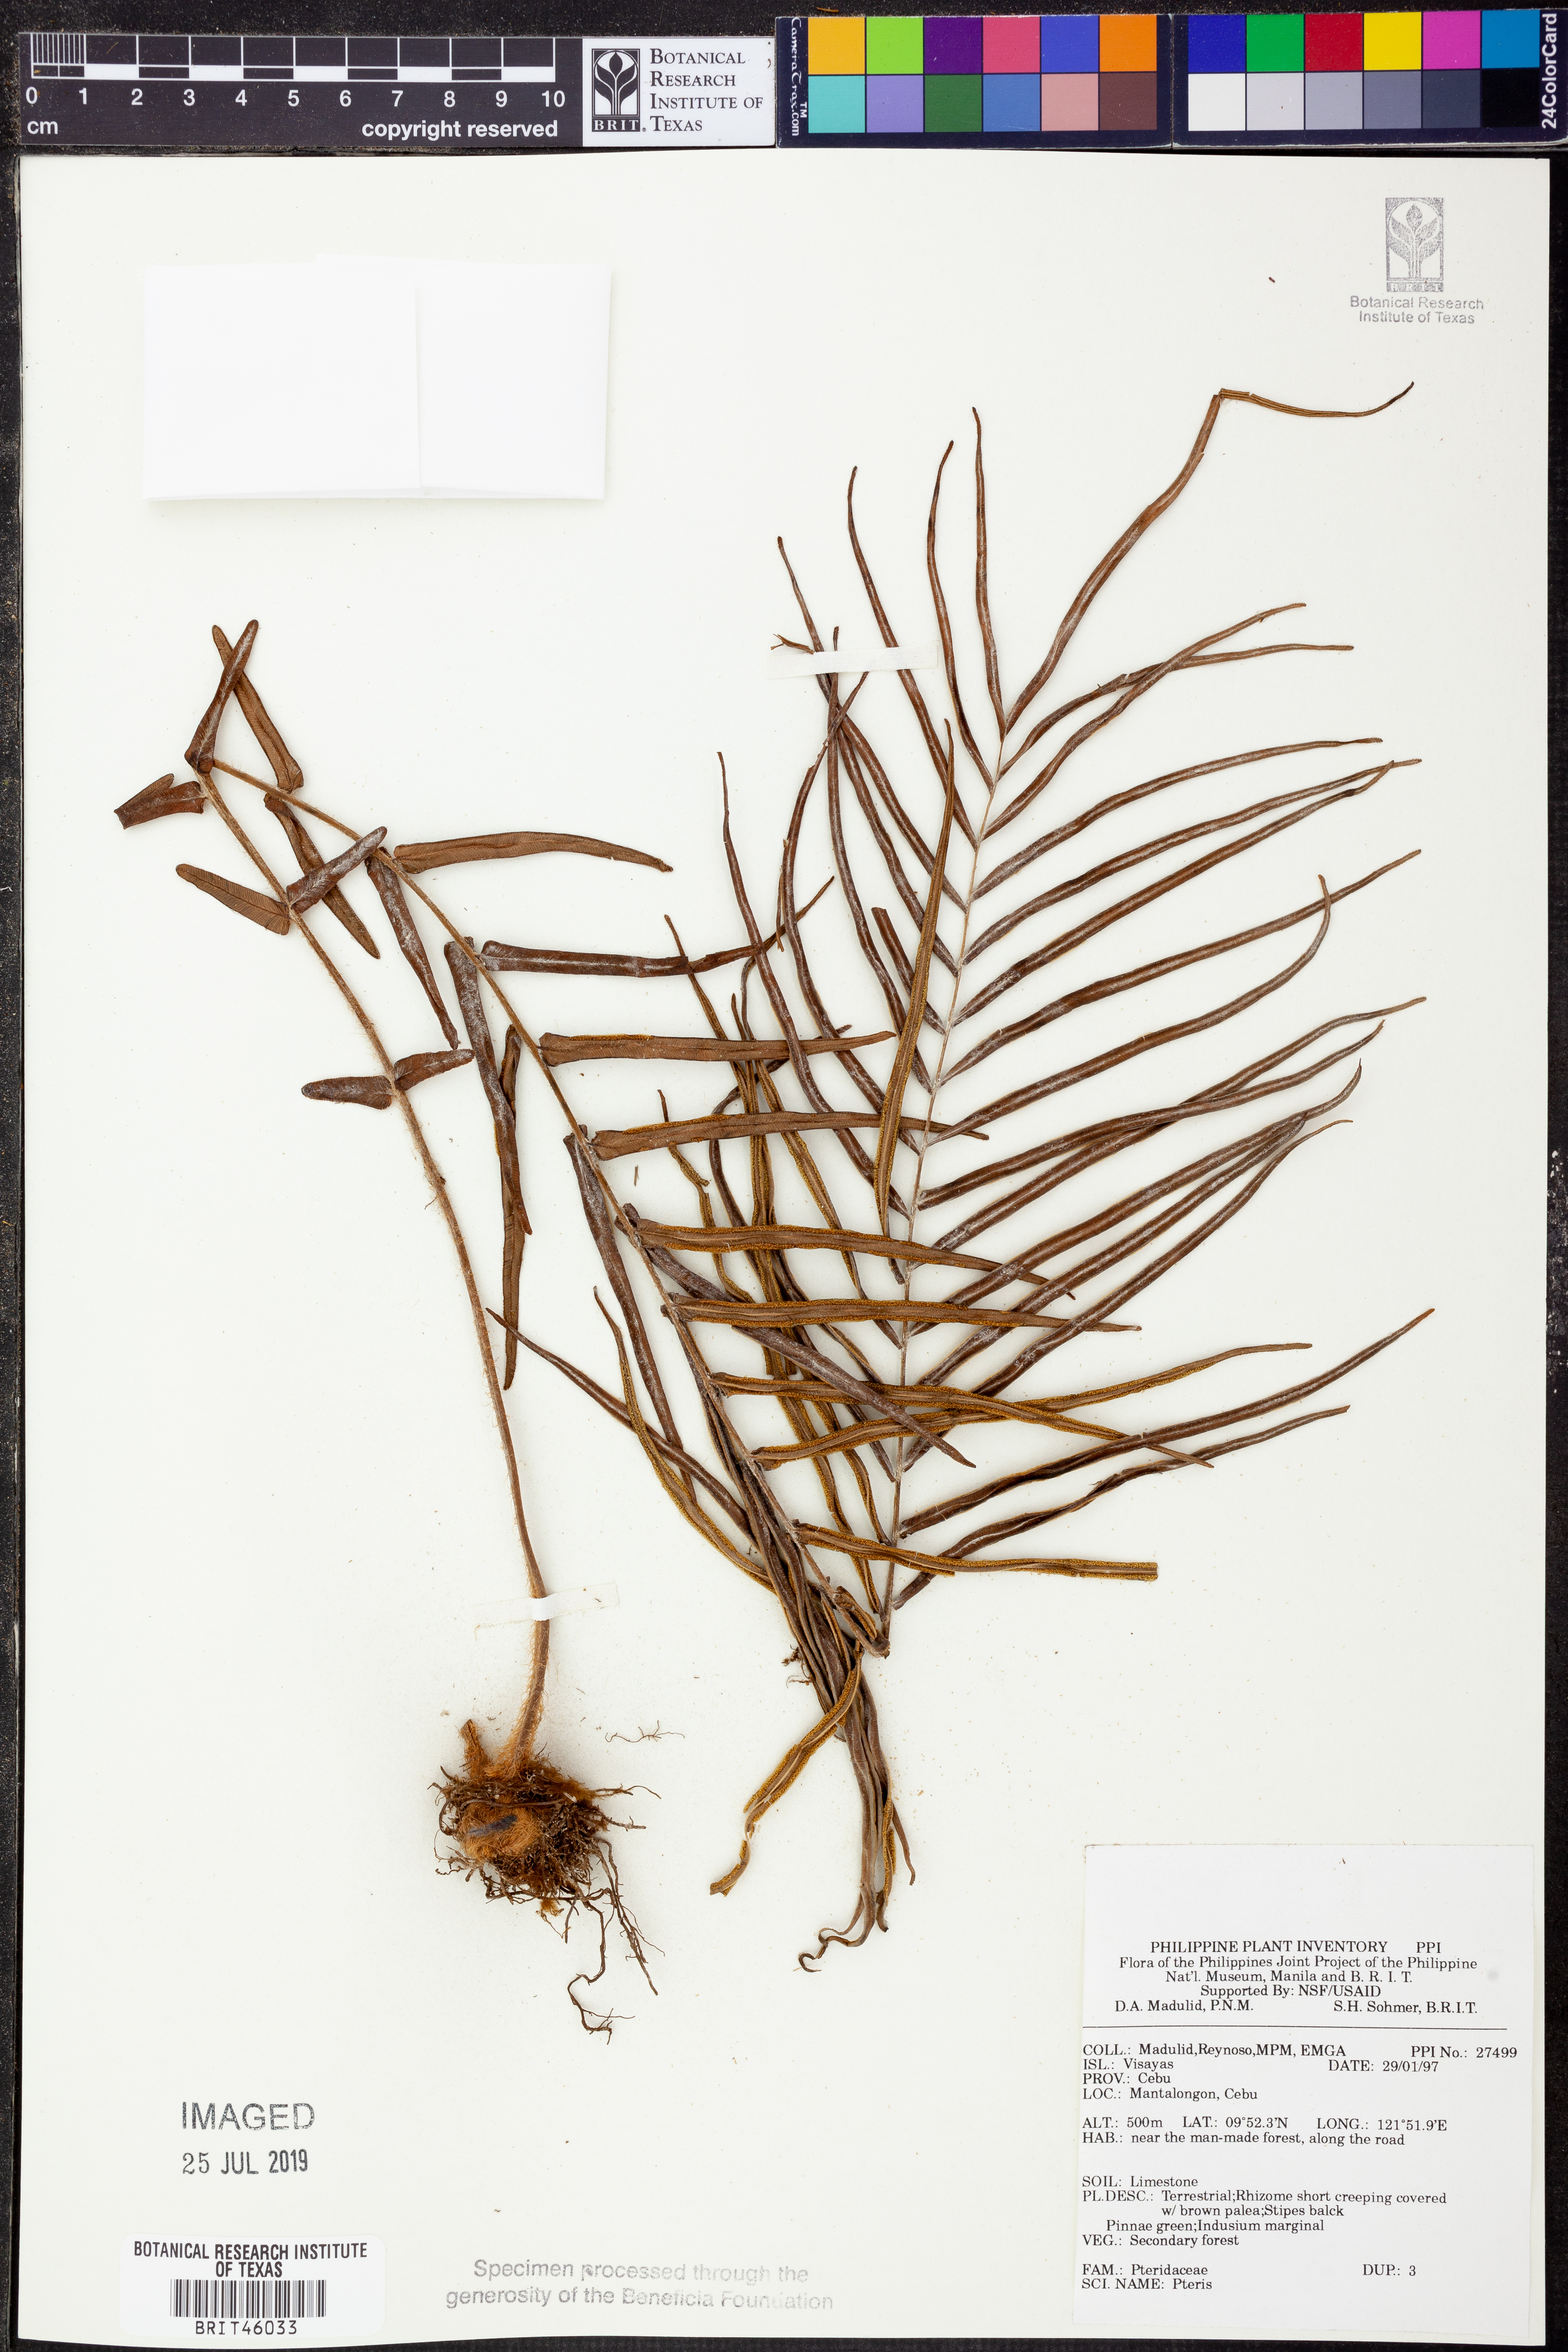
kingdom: Plantae
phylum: Tracheophyta
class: Polypodiopsida
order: Polypodiales
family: Pteridaceae
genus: Pteris
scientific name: Pteris
